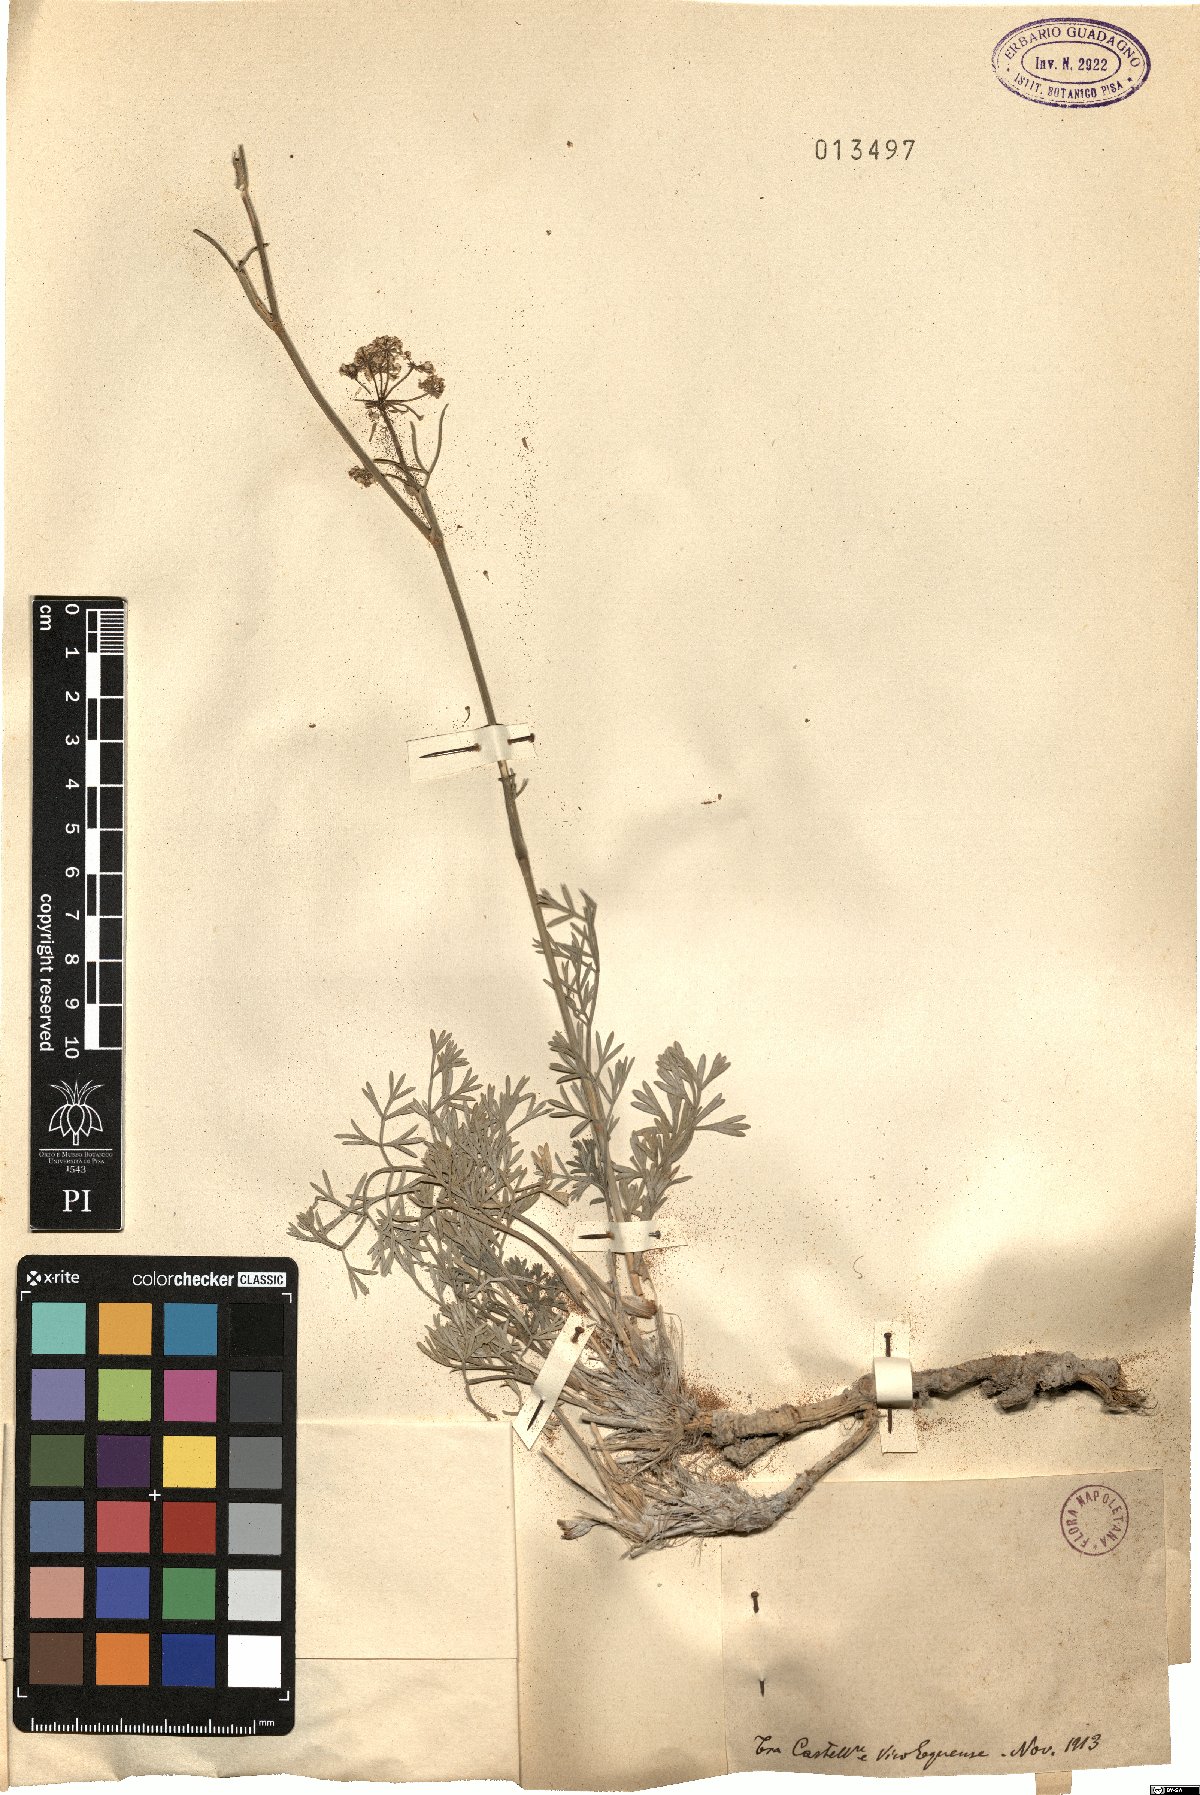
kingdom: Plantae
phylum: Tracheophyta
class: Magnoliopsida
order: Apiales
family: Apiaceae
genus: Seseli
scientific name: Seseli
